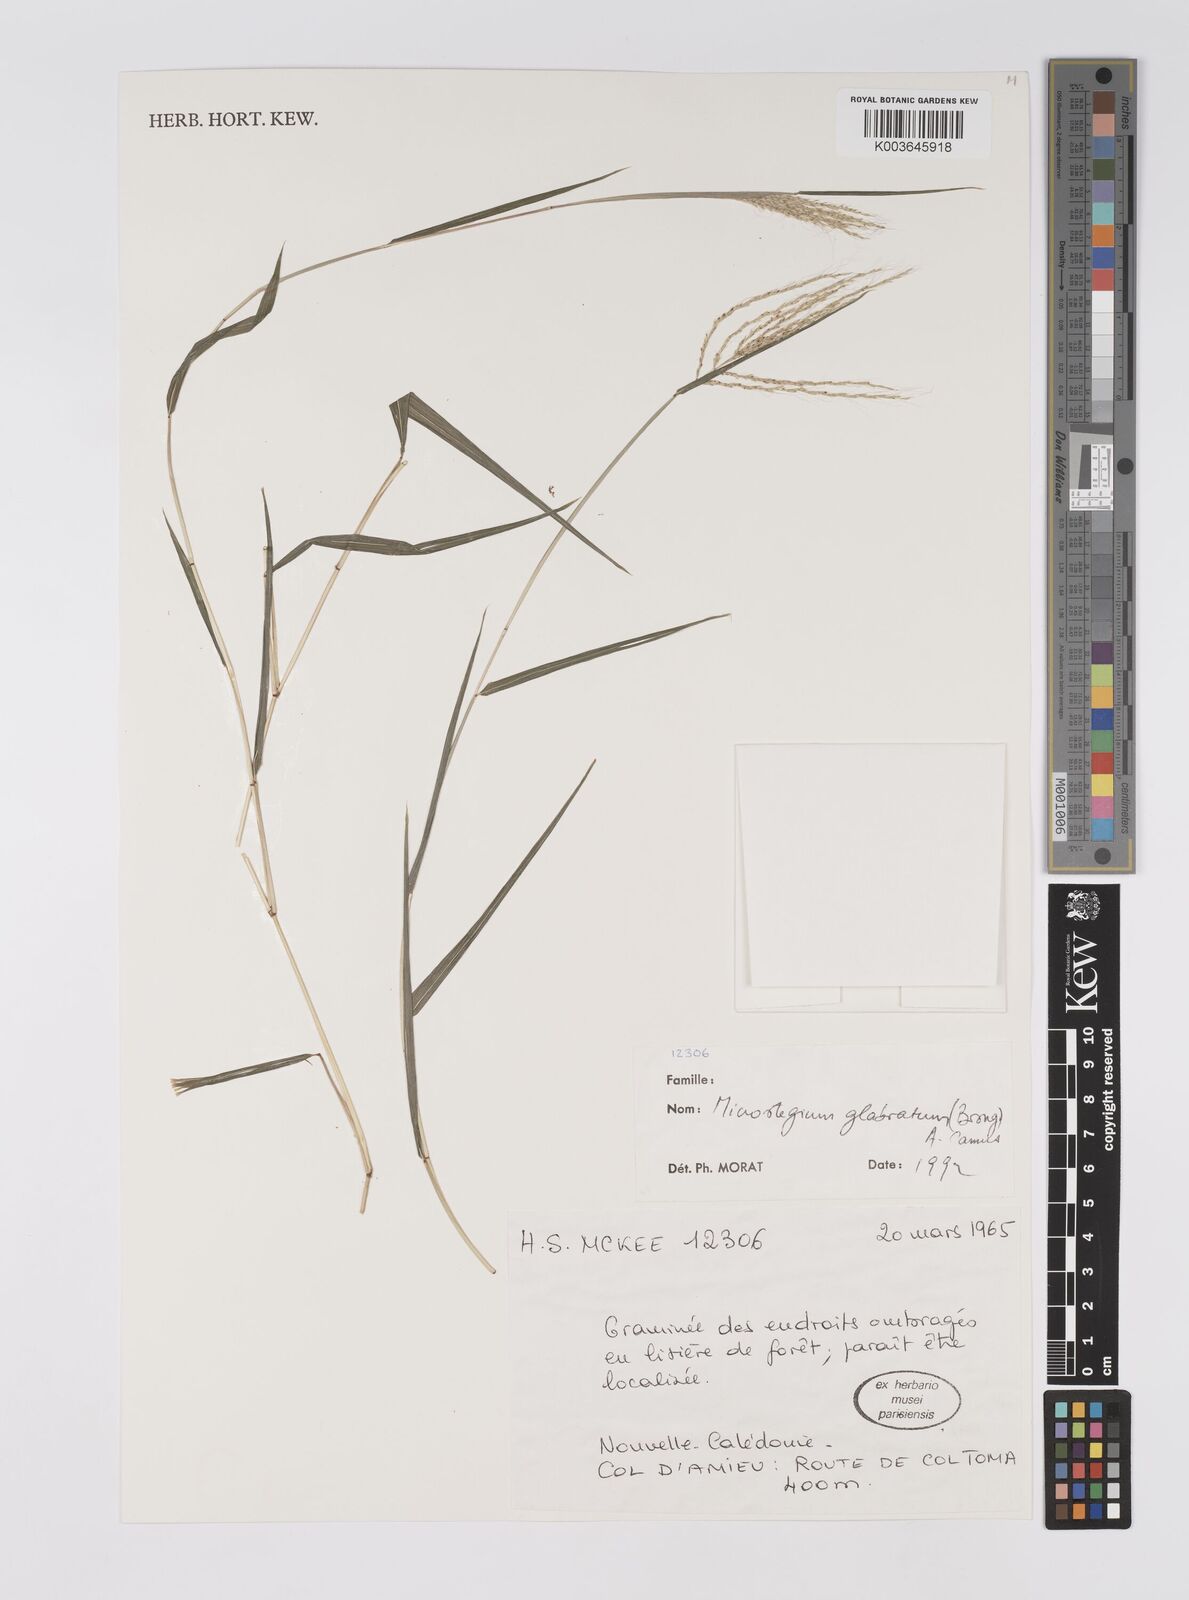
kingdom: Plantae
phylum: Tracheophyta
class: Liliopsida
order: Poales
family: Poaceae
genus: Microstegium
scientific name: Microstegium glabratum
